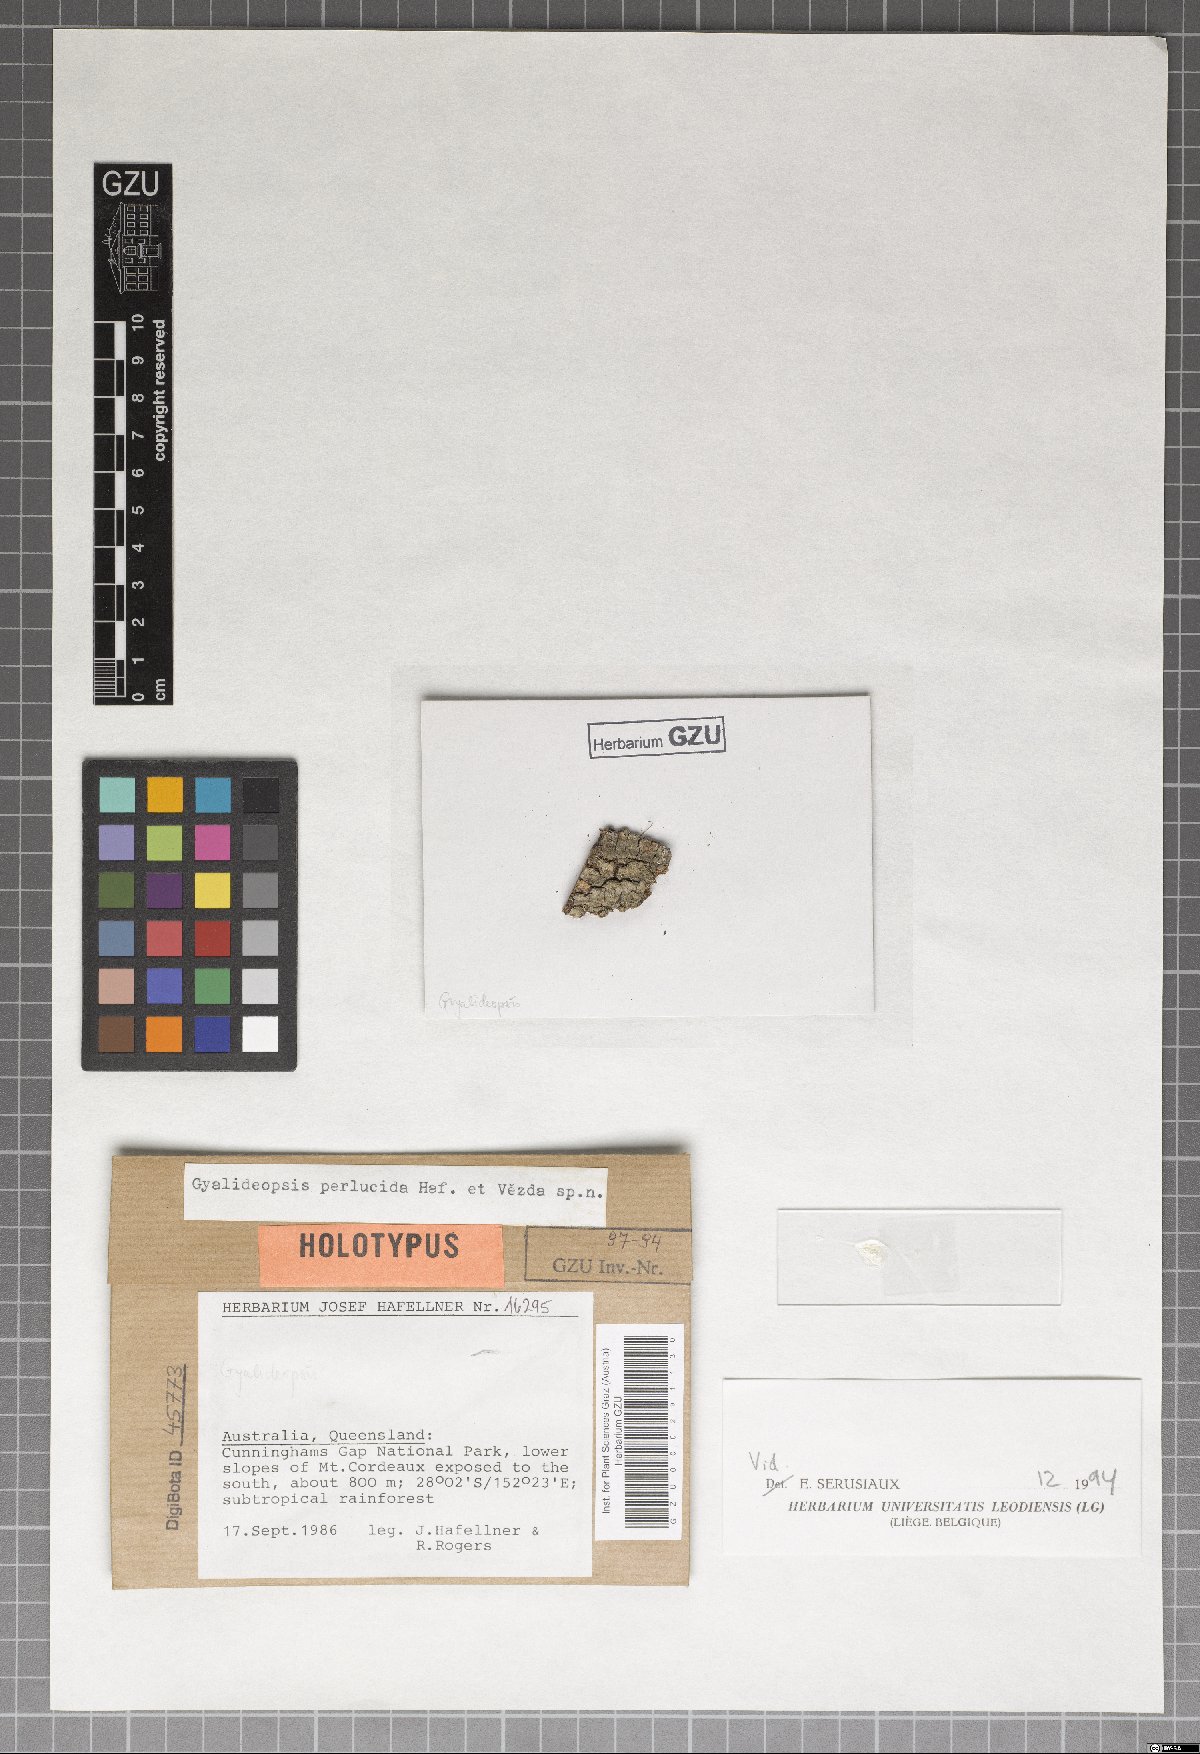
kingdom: Fungi
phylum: Ascomycota
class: Lecanoromycetes
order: Ostropales
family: Gomphillaceae
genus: Jamesiella
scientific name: Jamesiella perlucida
